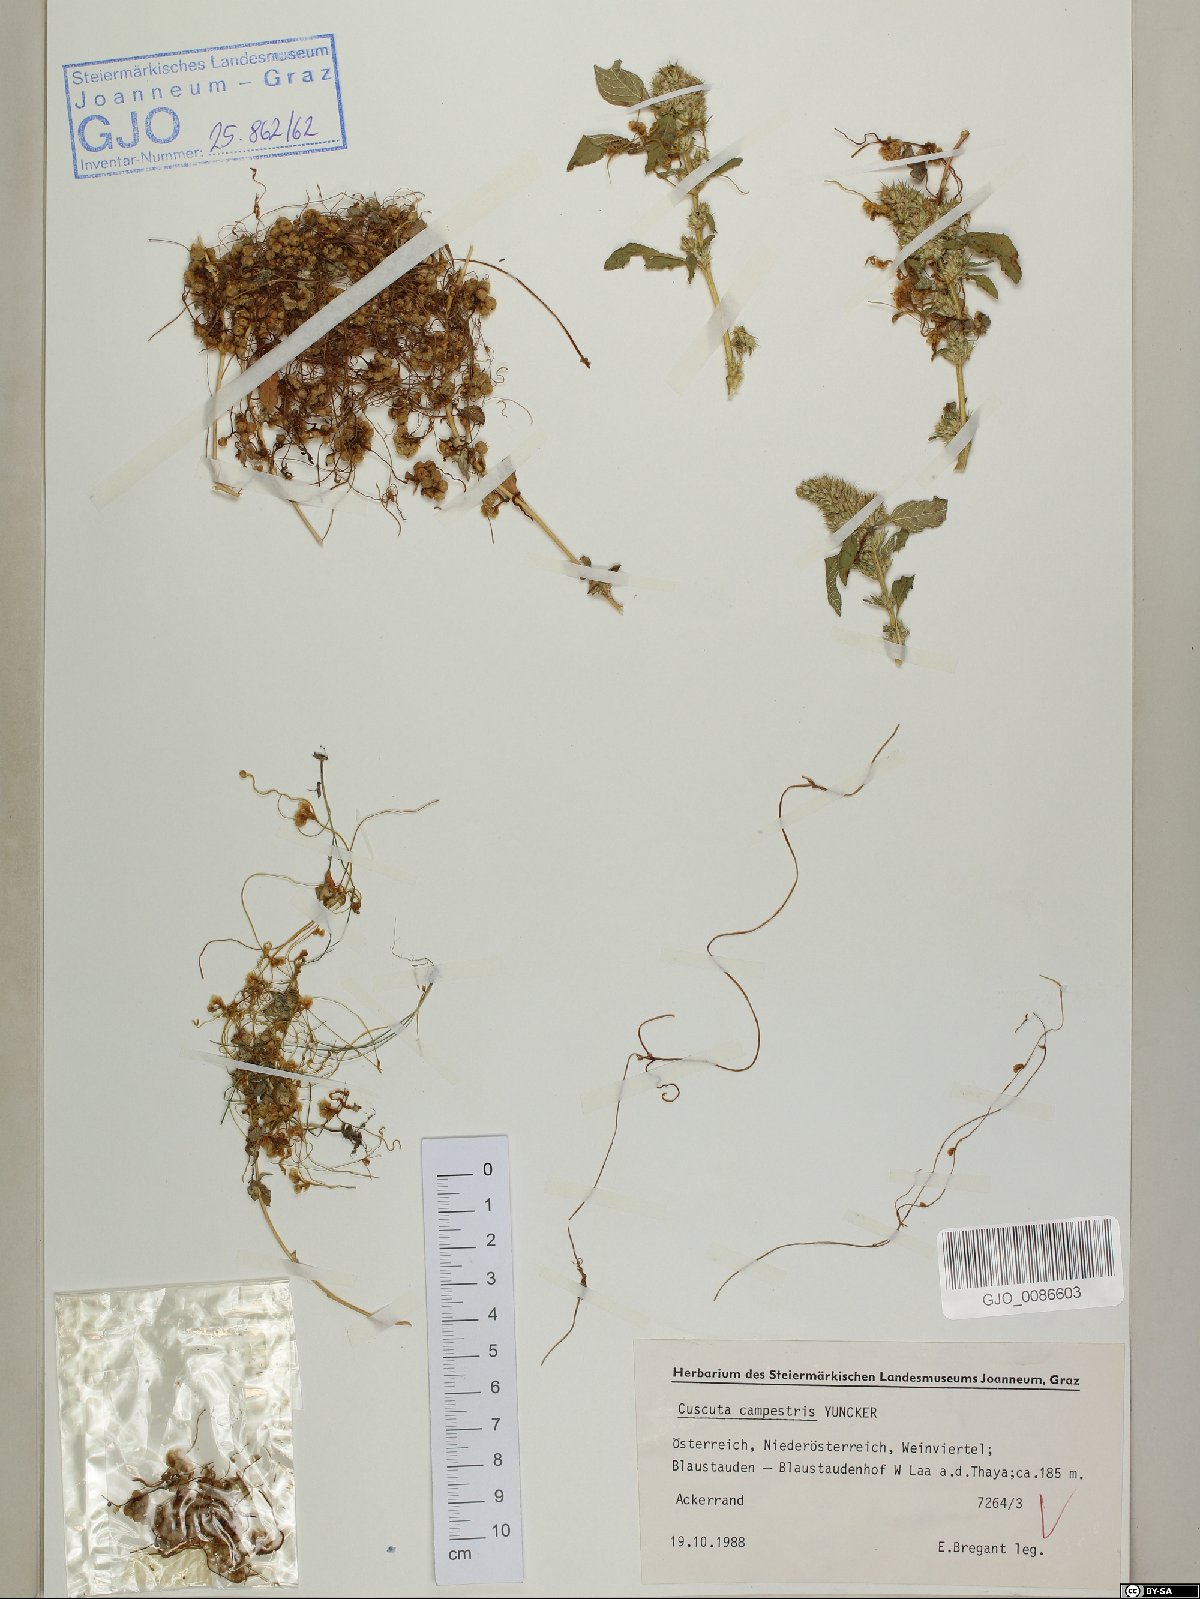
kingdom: Plantae
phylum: Tracheophyta
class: Magnoliopsida
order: Solanales
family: Convolvulaceae
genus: Cuscuta
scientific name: Cuscuta campestris
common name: Yellow dodder
